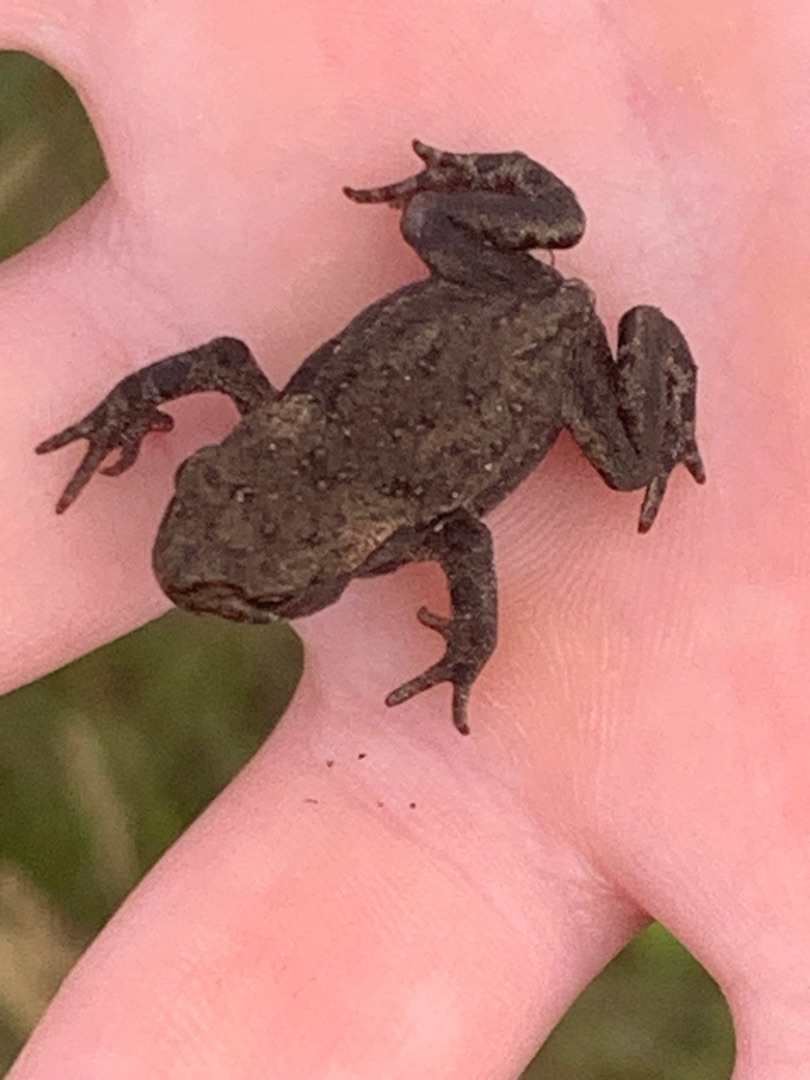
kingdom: Animalia
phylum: Chordata
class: Amphibia
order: Anura
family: Bufonidae
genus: Bufo
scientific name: Bufo bufo
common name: Skrubtudse
